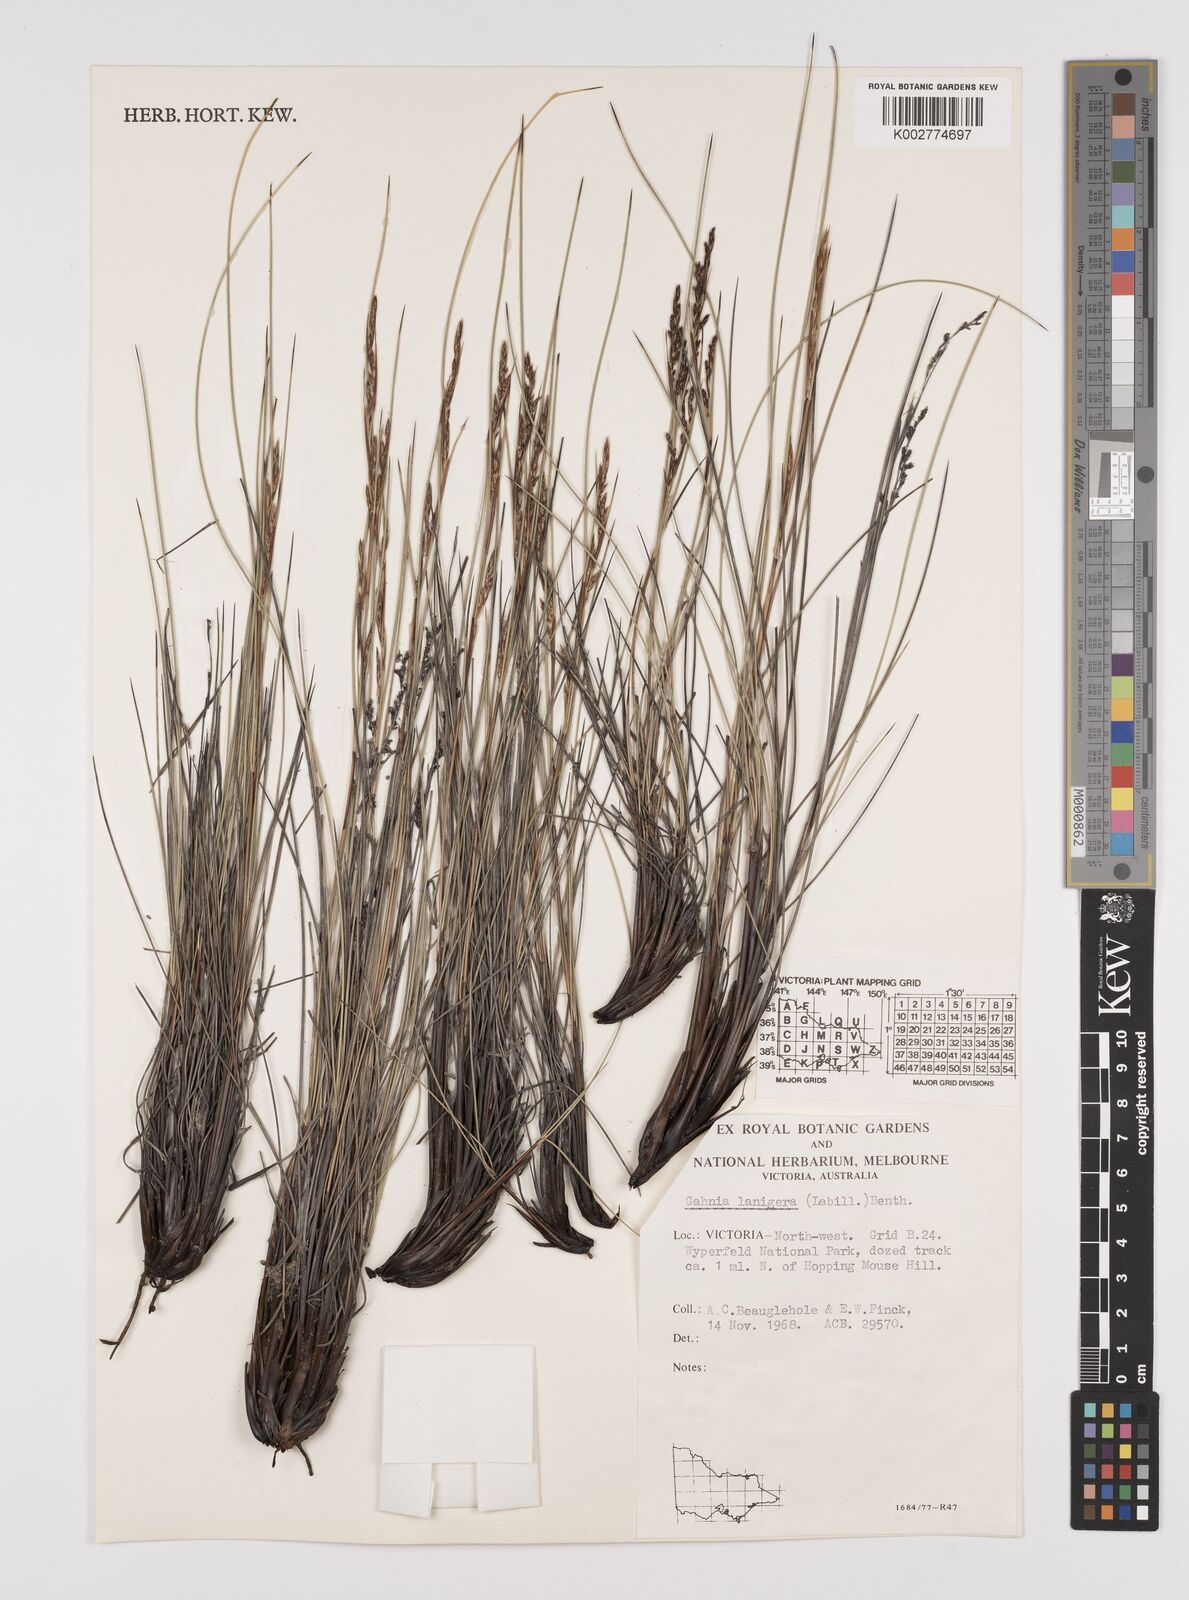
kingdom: Plantae
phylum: Tracheophyta
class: Liliopsida
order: Poales
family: Cyperaceae
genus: Gahnia
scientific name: Gahnia lanigera
